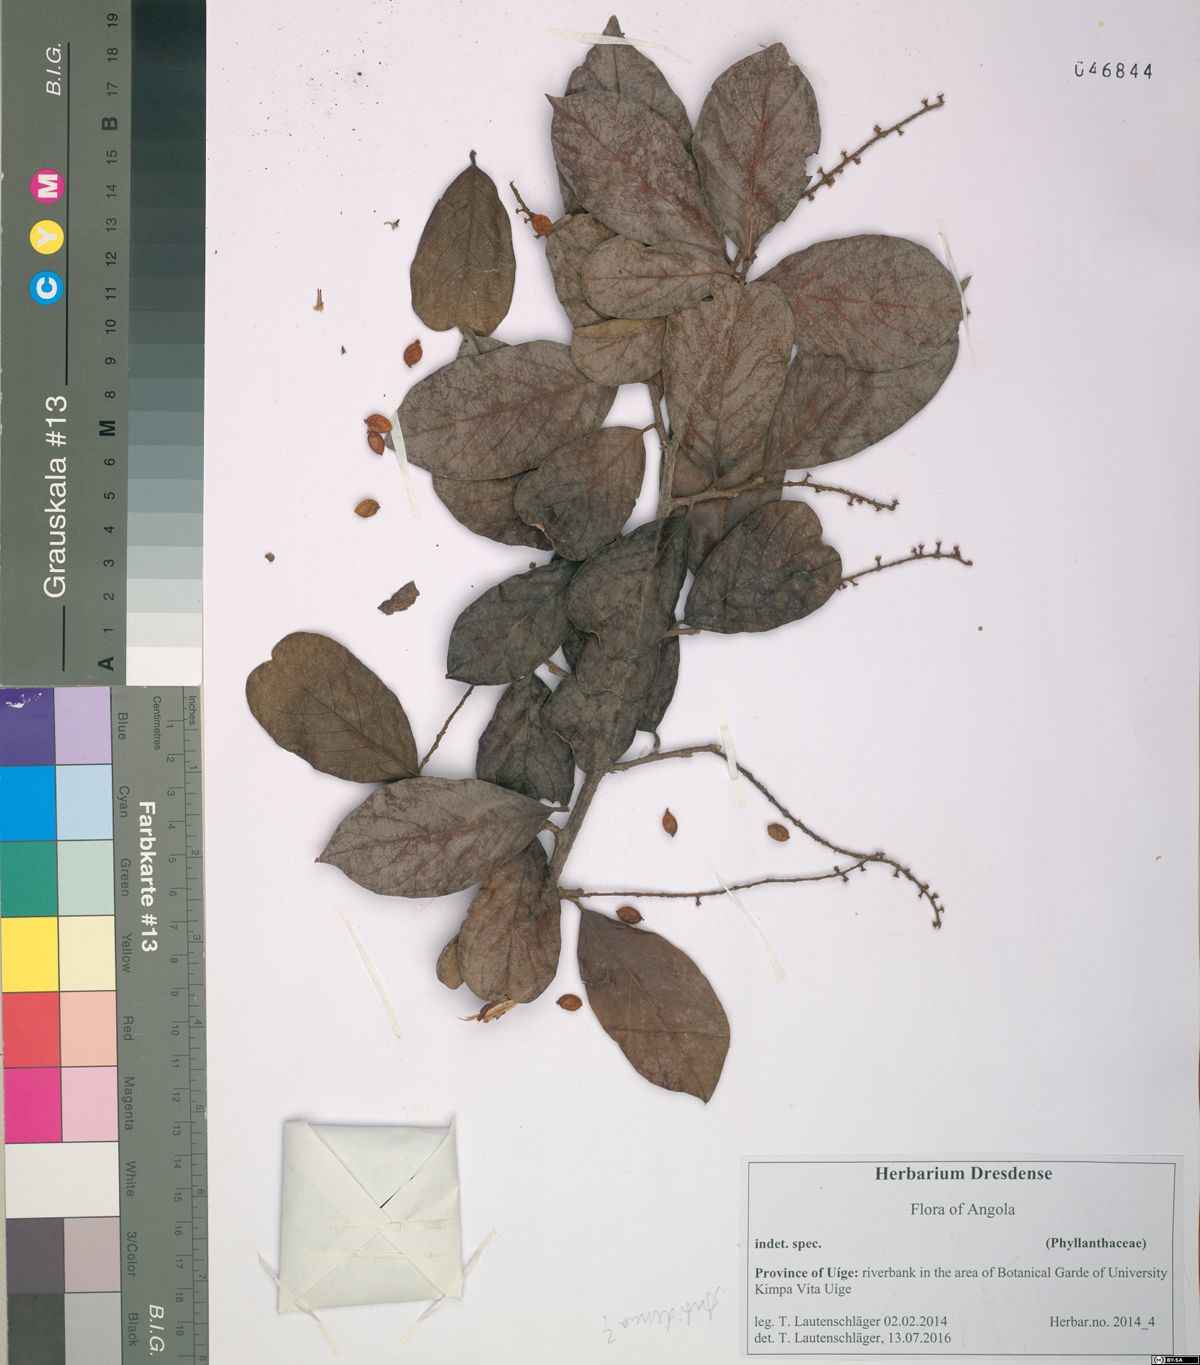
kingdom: Plantae
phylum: Tracheophyta
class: Magnoliopsida
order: Malpighiales
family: Phyllanthaceae
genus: Antidesma
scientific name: Antidesma vogelianum
